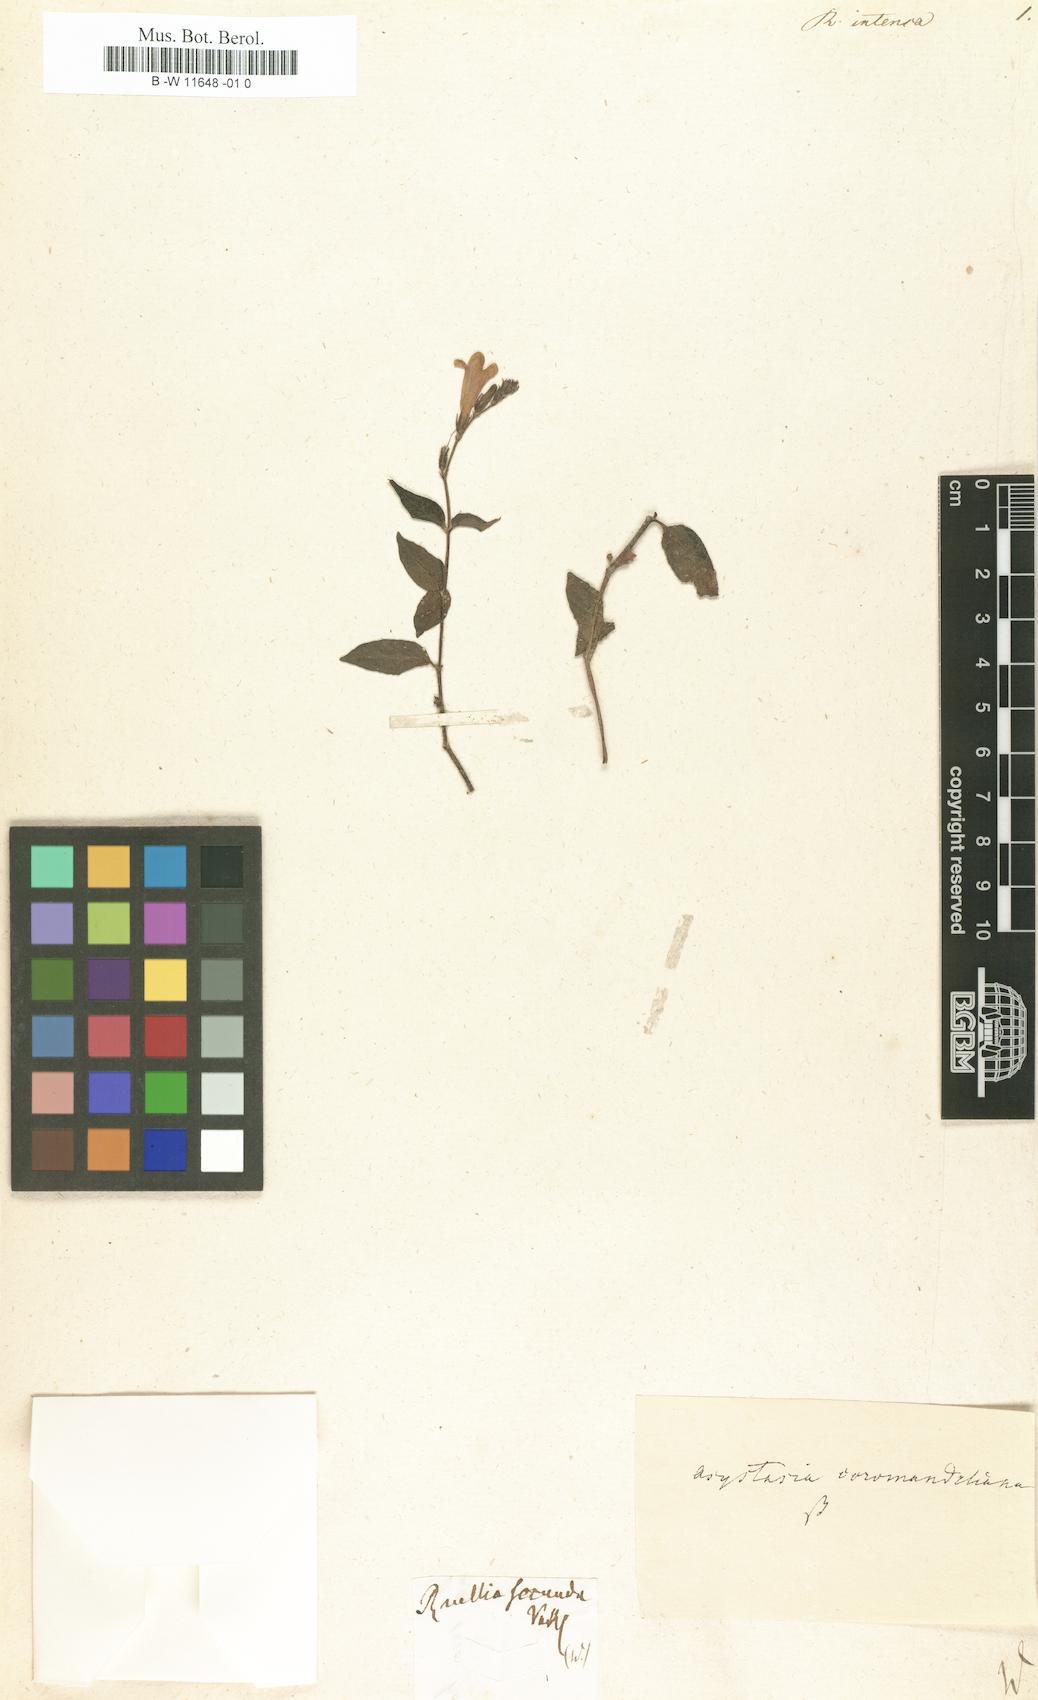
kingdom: Plantae
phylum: Tracheophyta
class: Magnoliopsida
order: Lamiales
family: Acanthaceae
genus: Asystasia
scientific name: Asystasia intrusa
